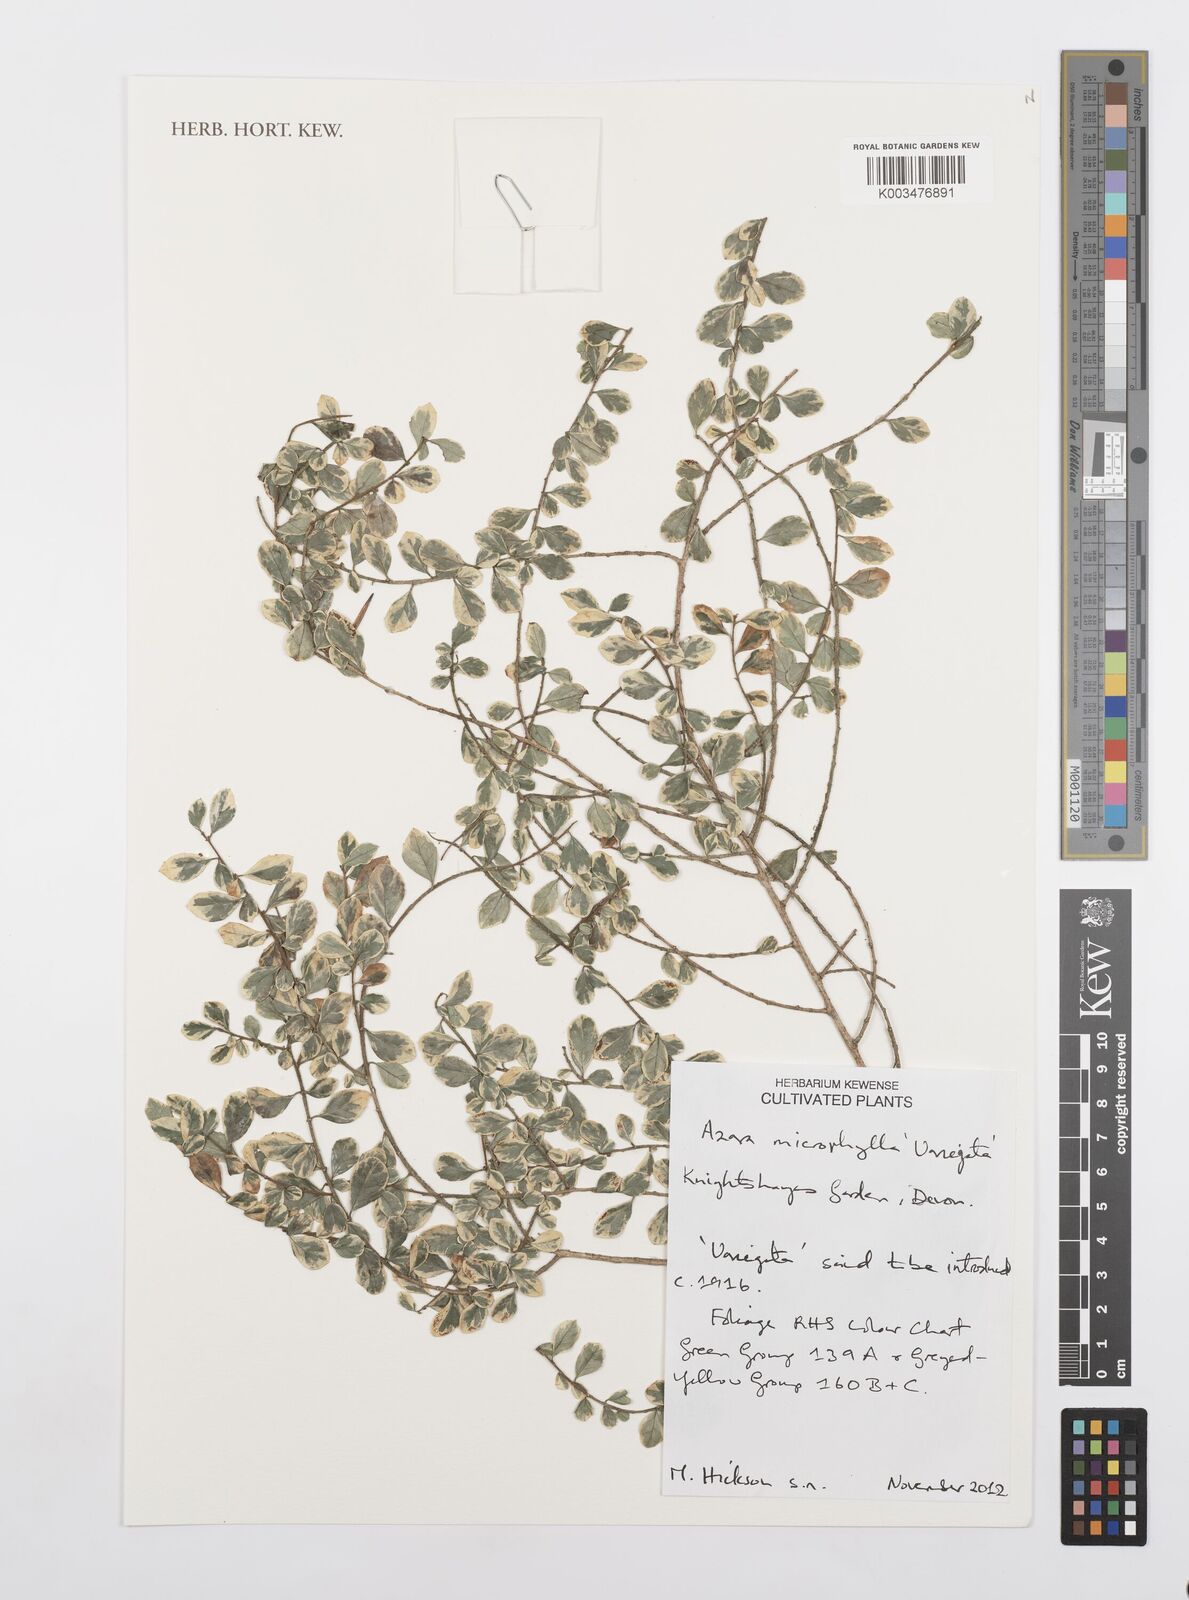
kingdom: Plantae
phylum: Tracheophyta
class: Magnoliopsida
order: Malpighiales
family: Salicaceae
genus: Azara
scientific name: Azara microphylla
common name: Box-leaf azara
